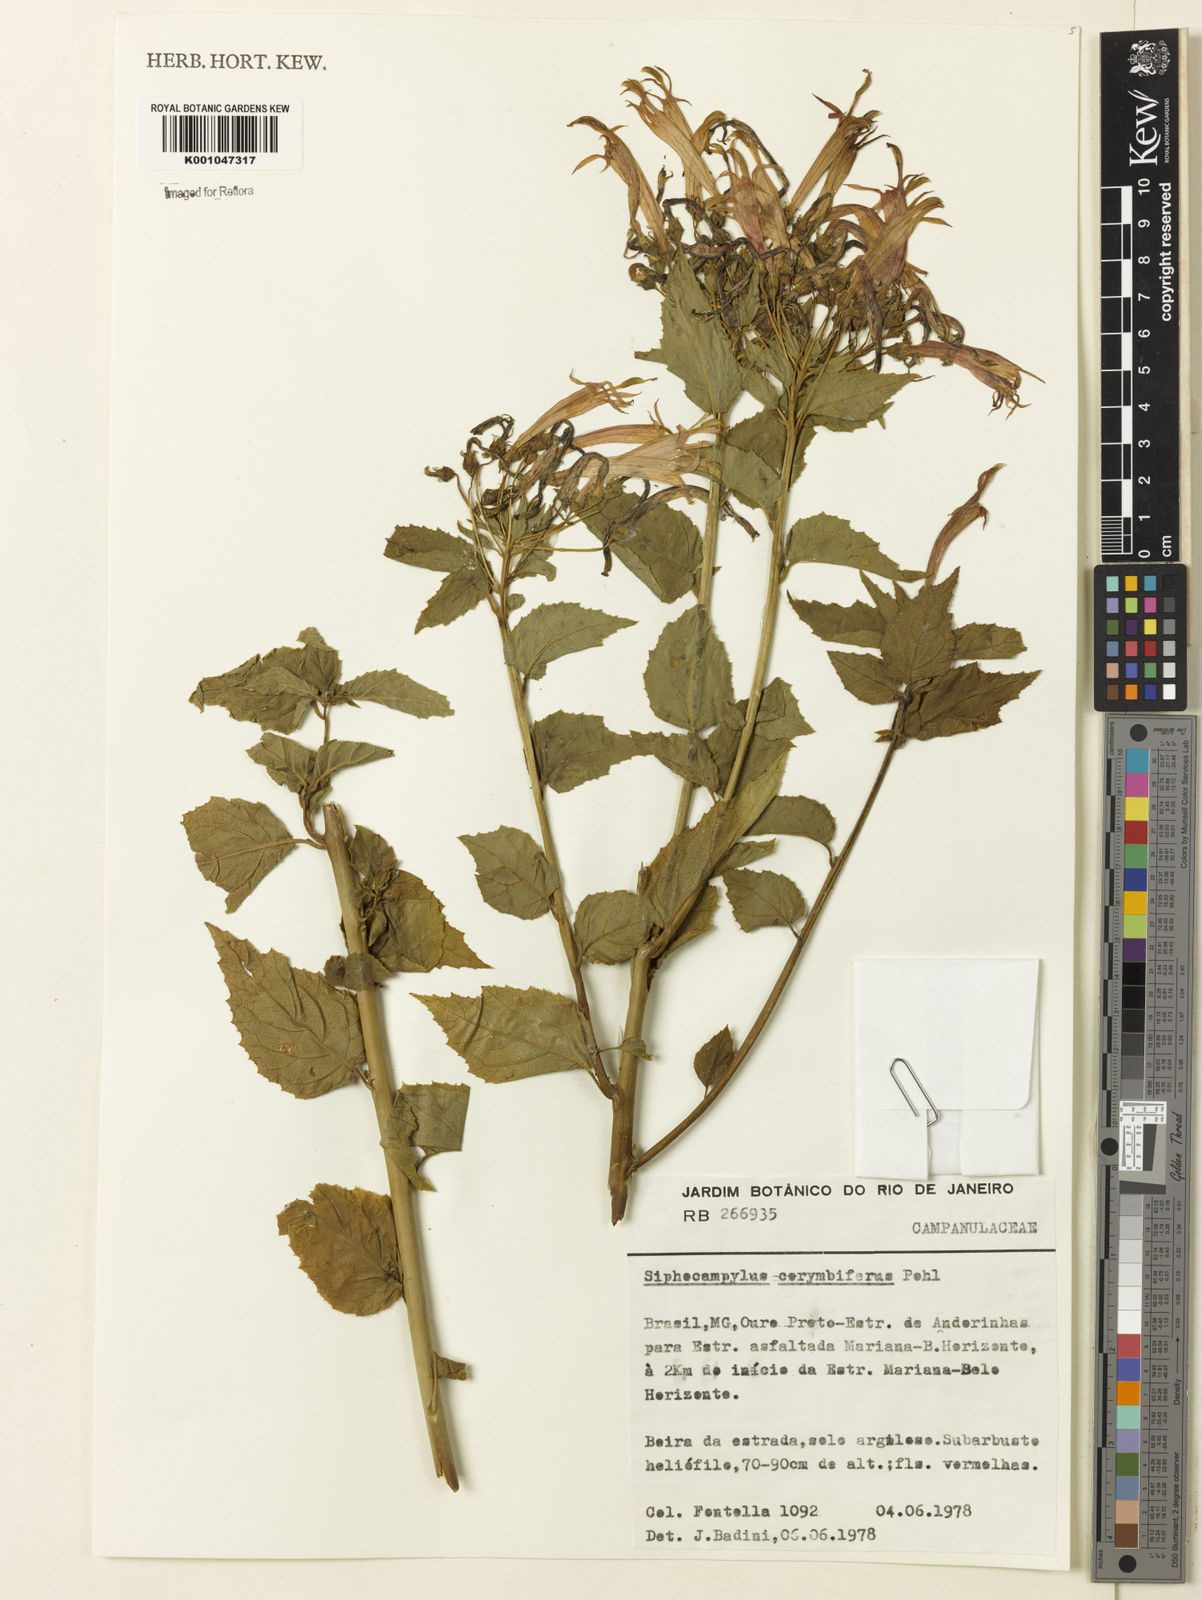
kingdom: Plantae
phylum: Tracheophyta
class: Magnoliopsida
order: Asterales
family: Campanulaceae
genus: Siphocampylus
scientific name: Siphocampylus corymbifer
